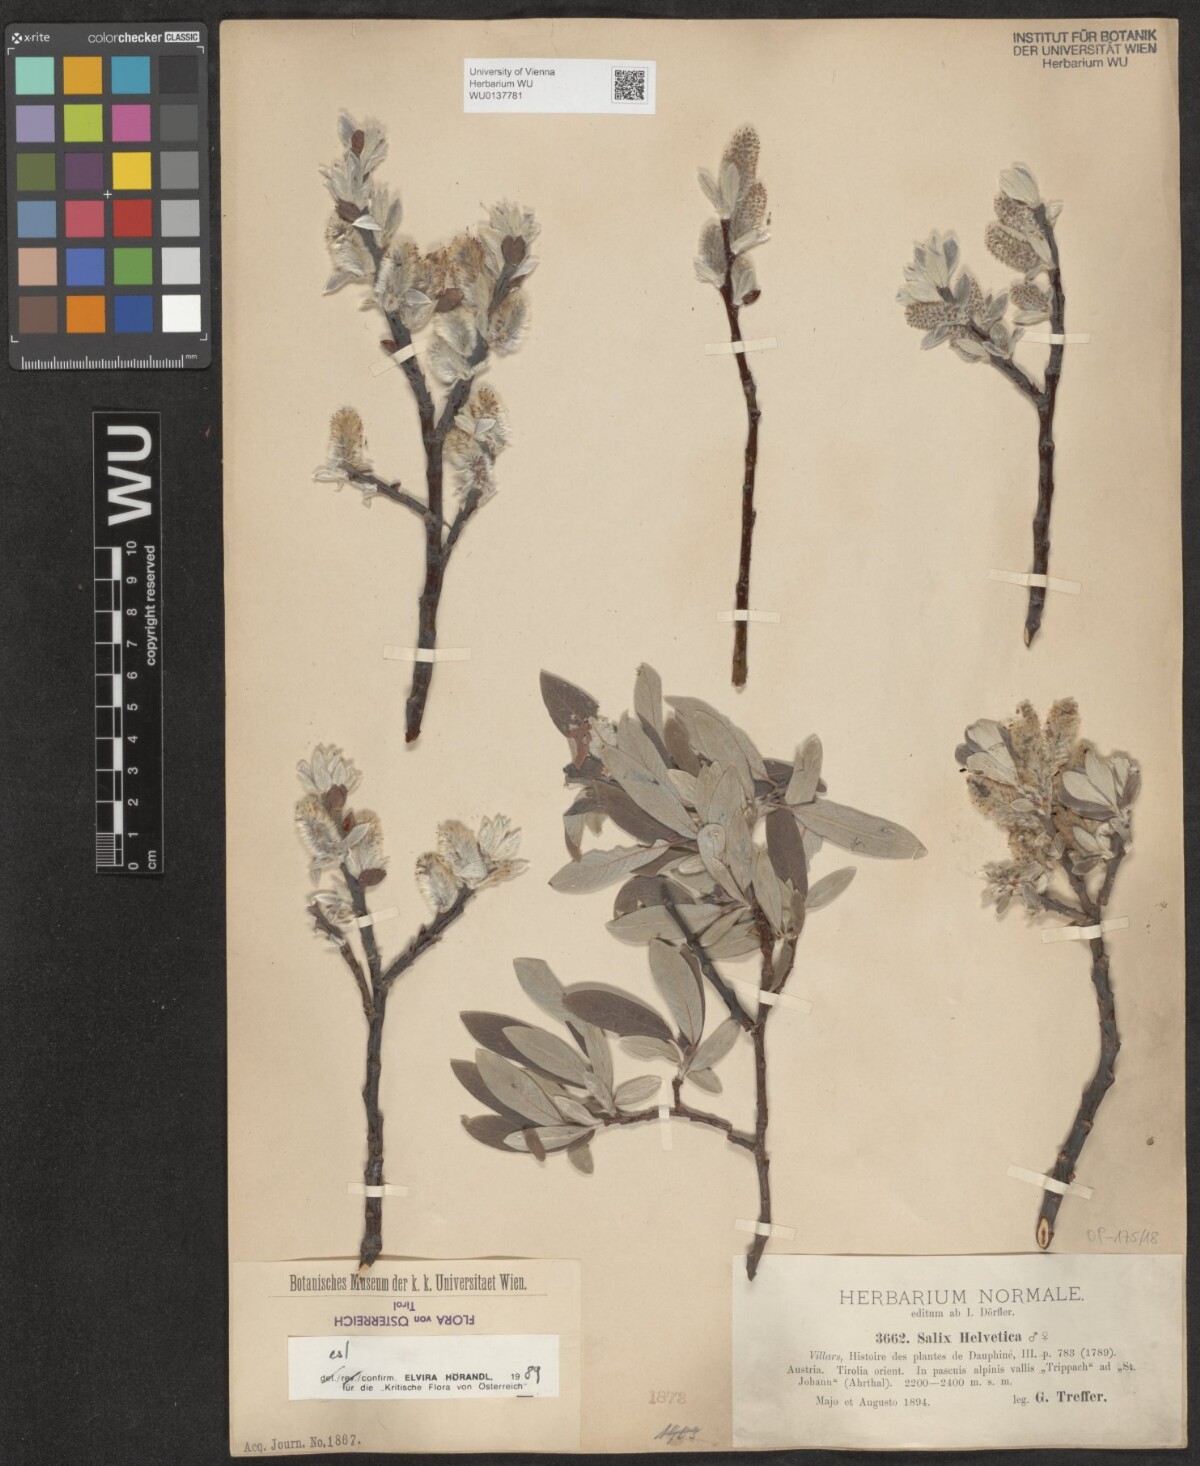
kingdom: Plantae
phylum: Tracheophyta
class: Magnoliopsida
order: Malpighiales
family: Salicaceae
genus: Salix
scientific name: Salix helvetica
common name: Swiss willow
